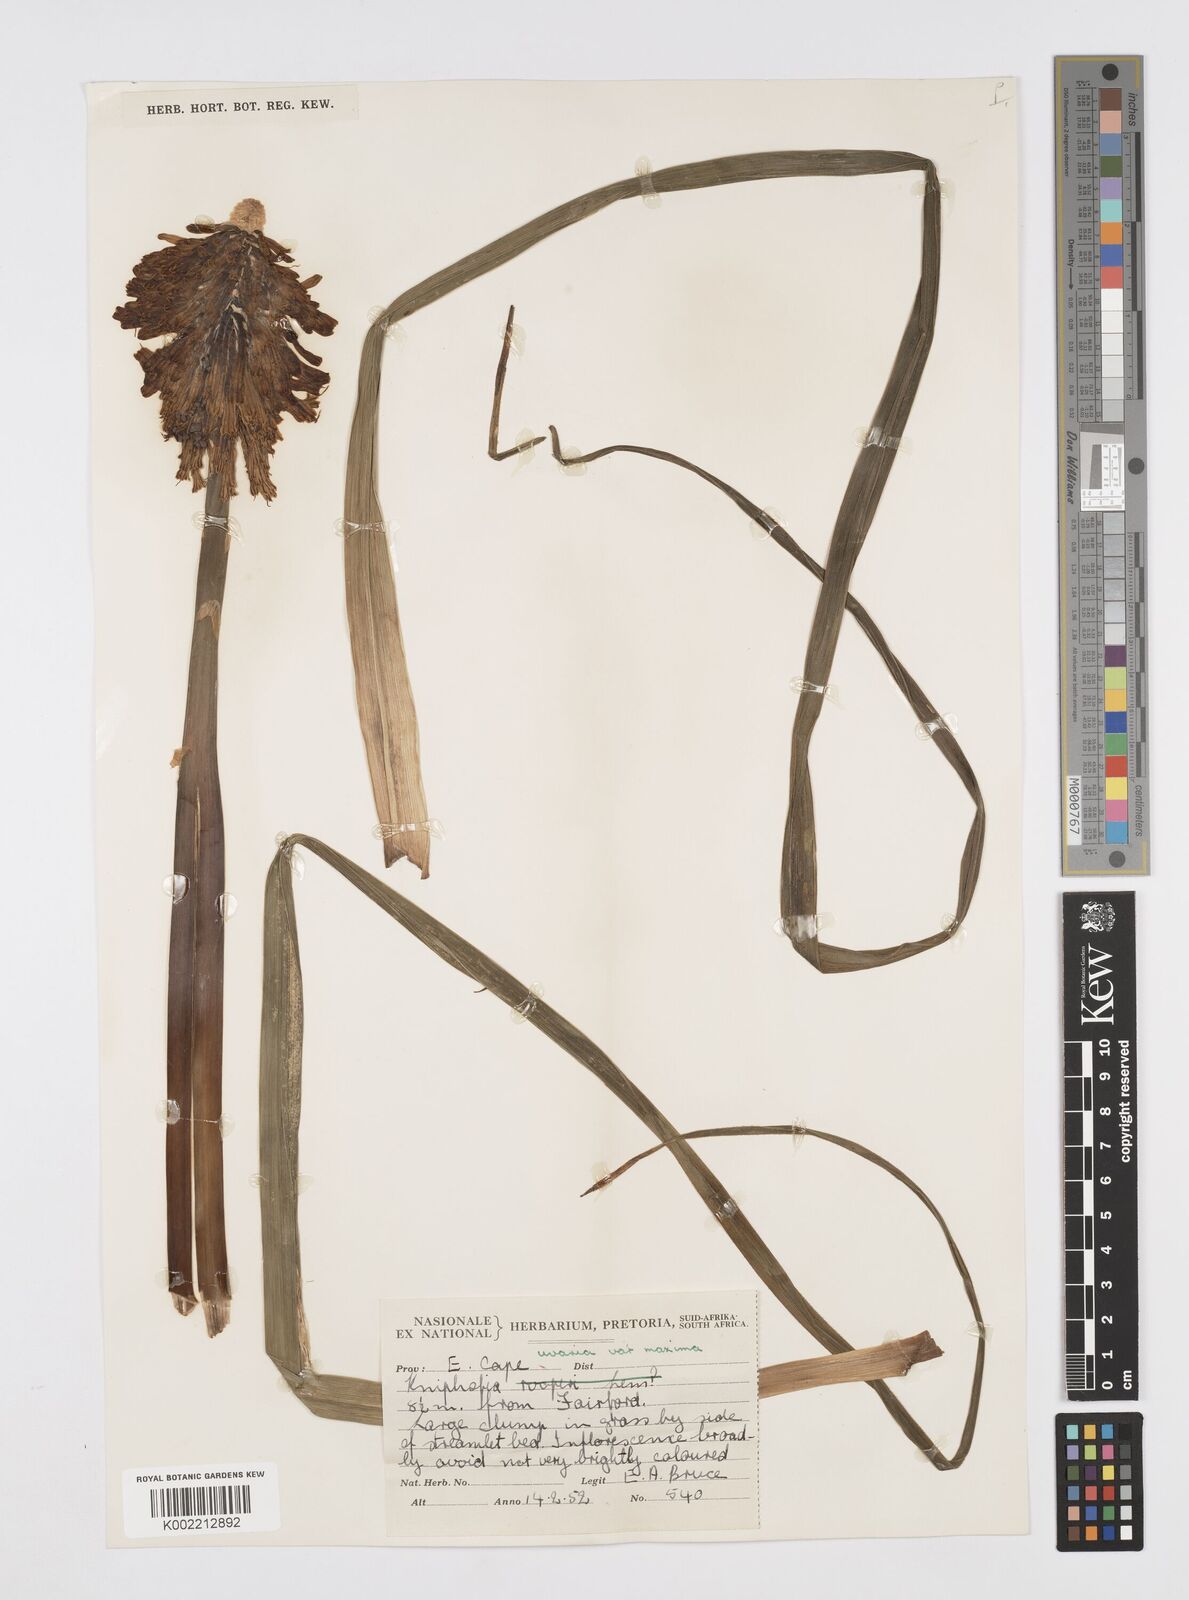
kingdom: Plantae
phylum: Tracheophyta
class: Liliopsida
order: Asparagales
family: Asphodelaceae
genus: Kniphofia
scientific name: Kniphofia uvaria
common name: Red-hot-poker
